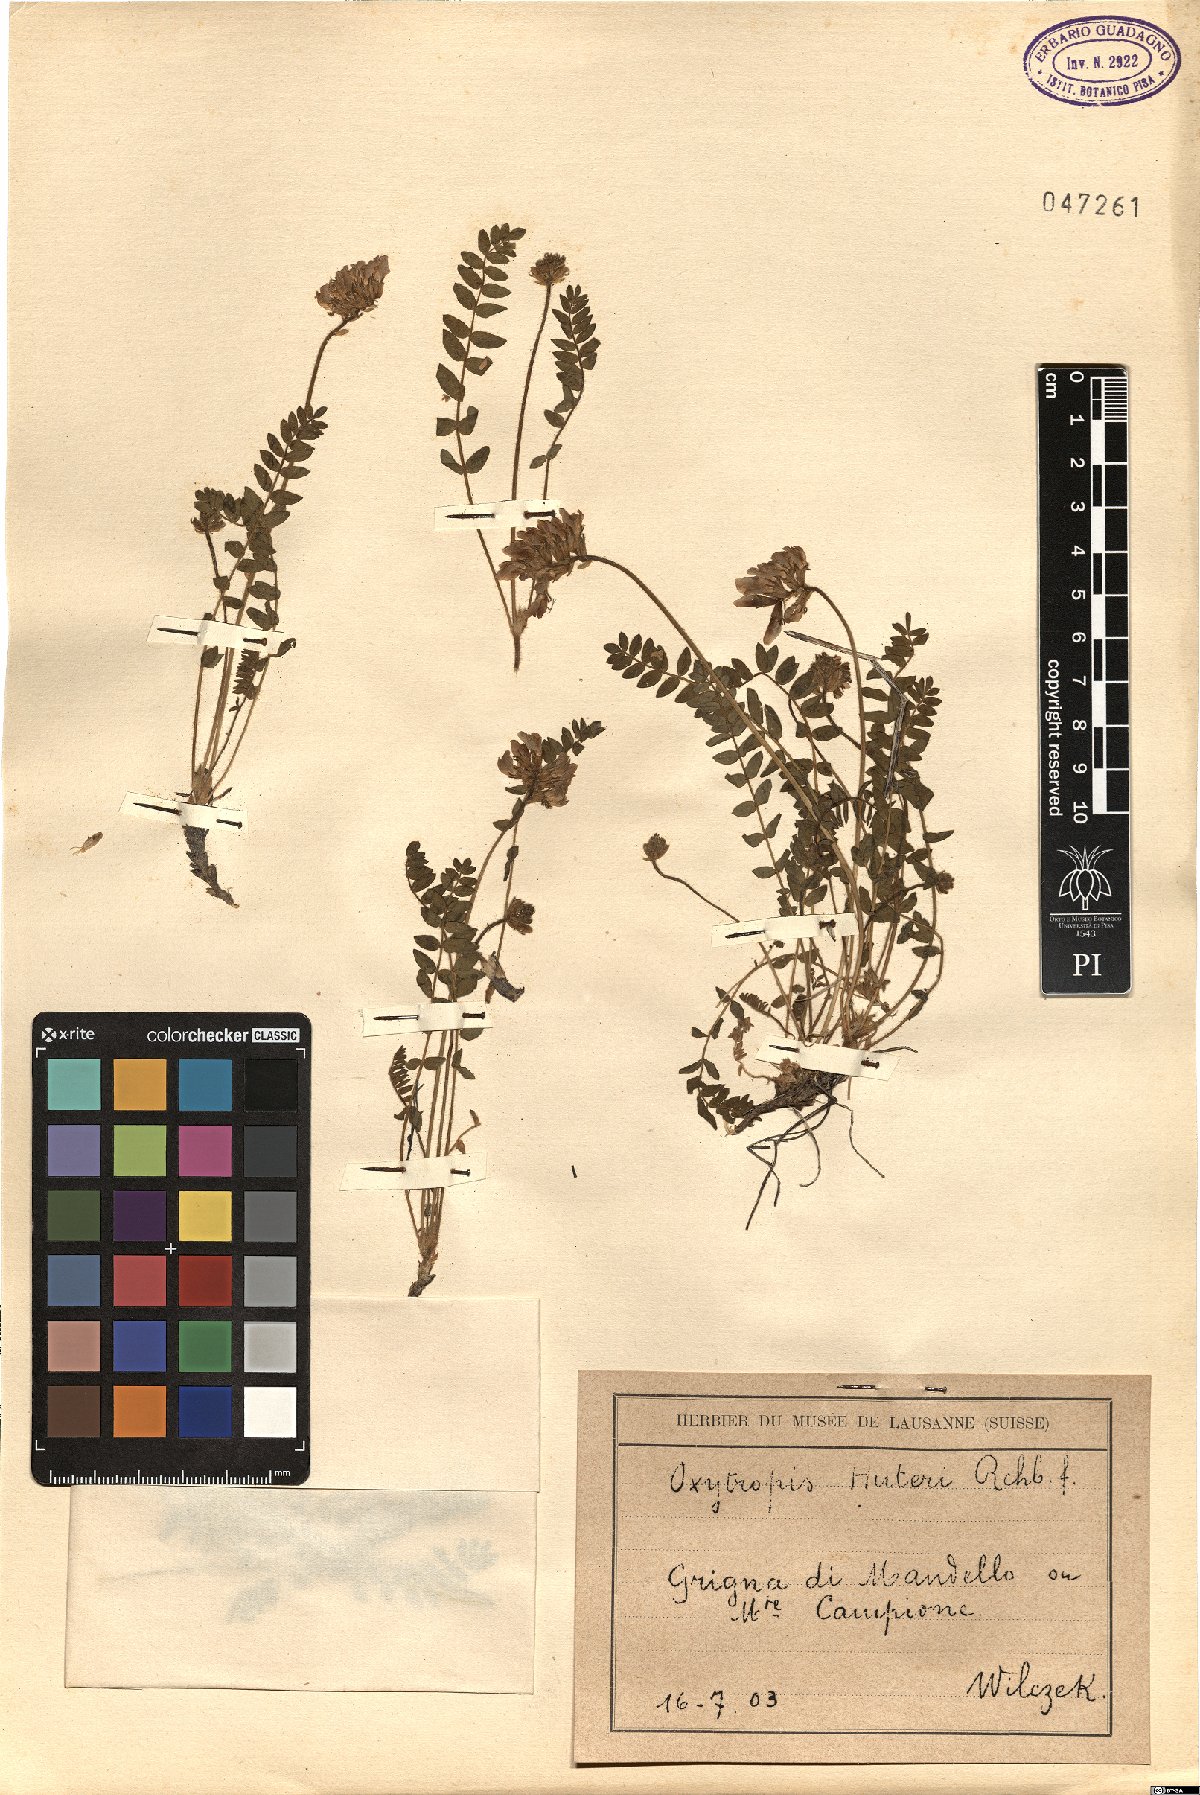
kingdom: Plantae
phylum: Tracheophyta
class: Magnoliopsida
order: Fabales
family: Fabaceae
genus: Oxytropis
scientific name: Oxytropis neglecta
